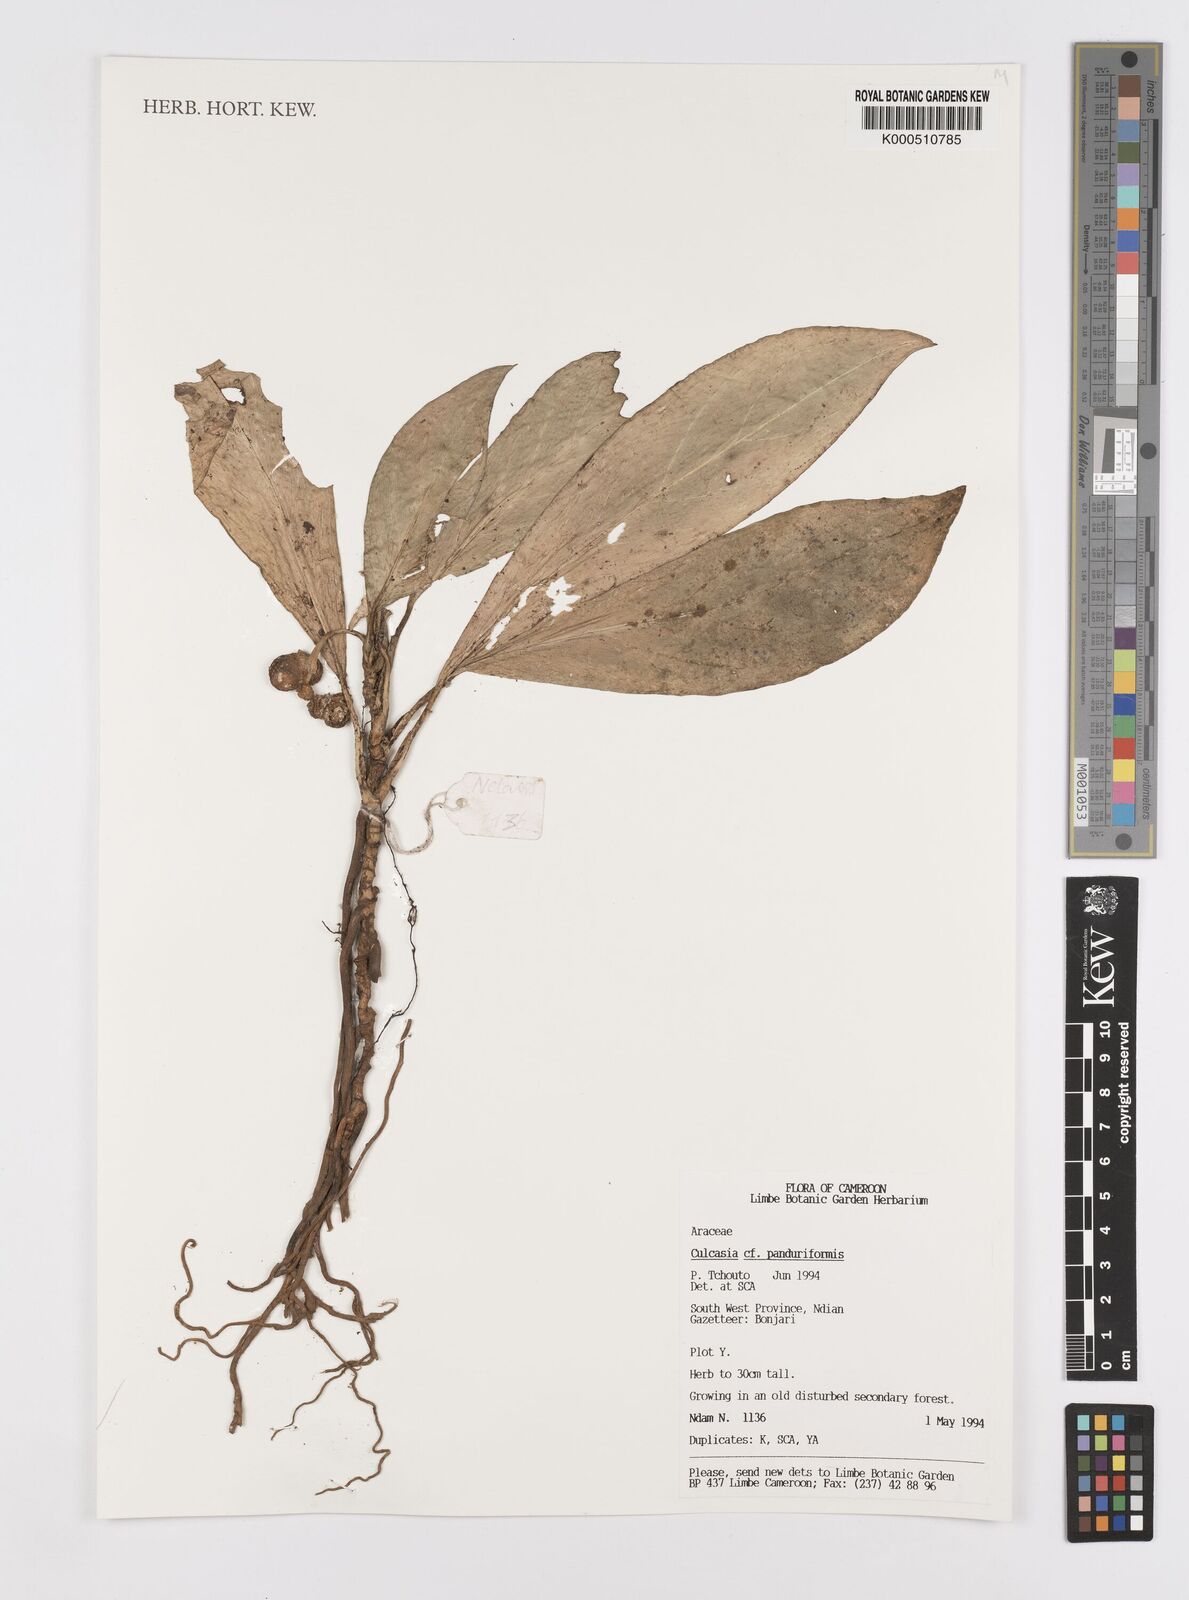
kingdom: Plantae
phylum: Tracheophyta
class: Liliopsida
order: Alismatales
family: Araceae
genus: Culcasia
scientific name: Culcasia panduriformis
